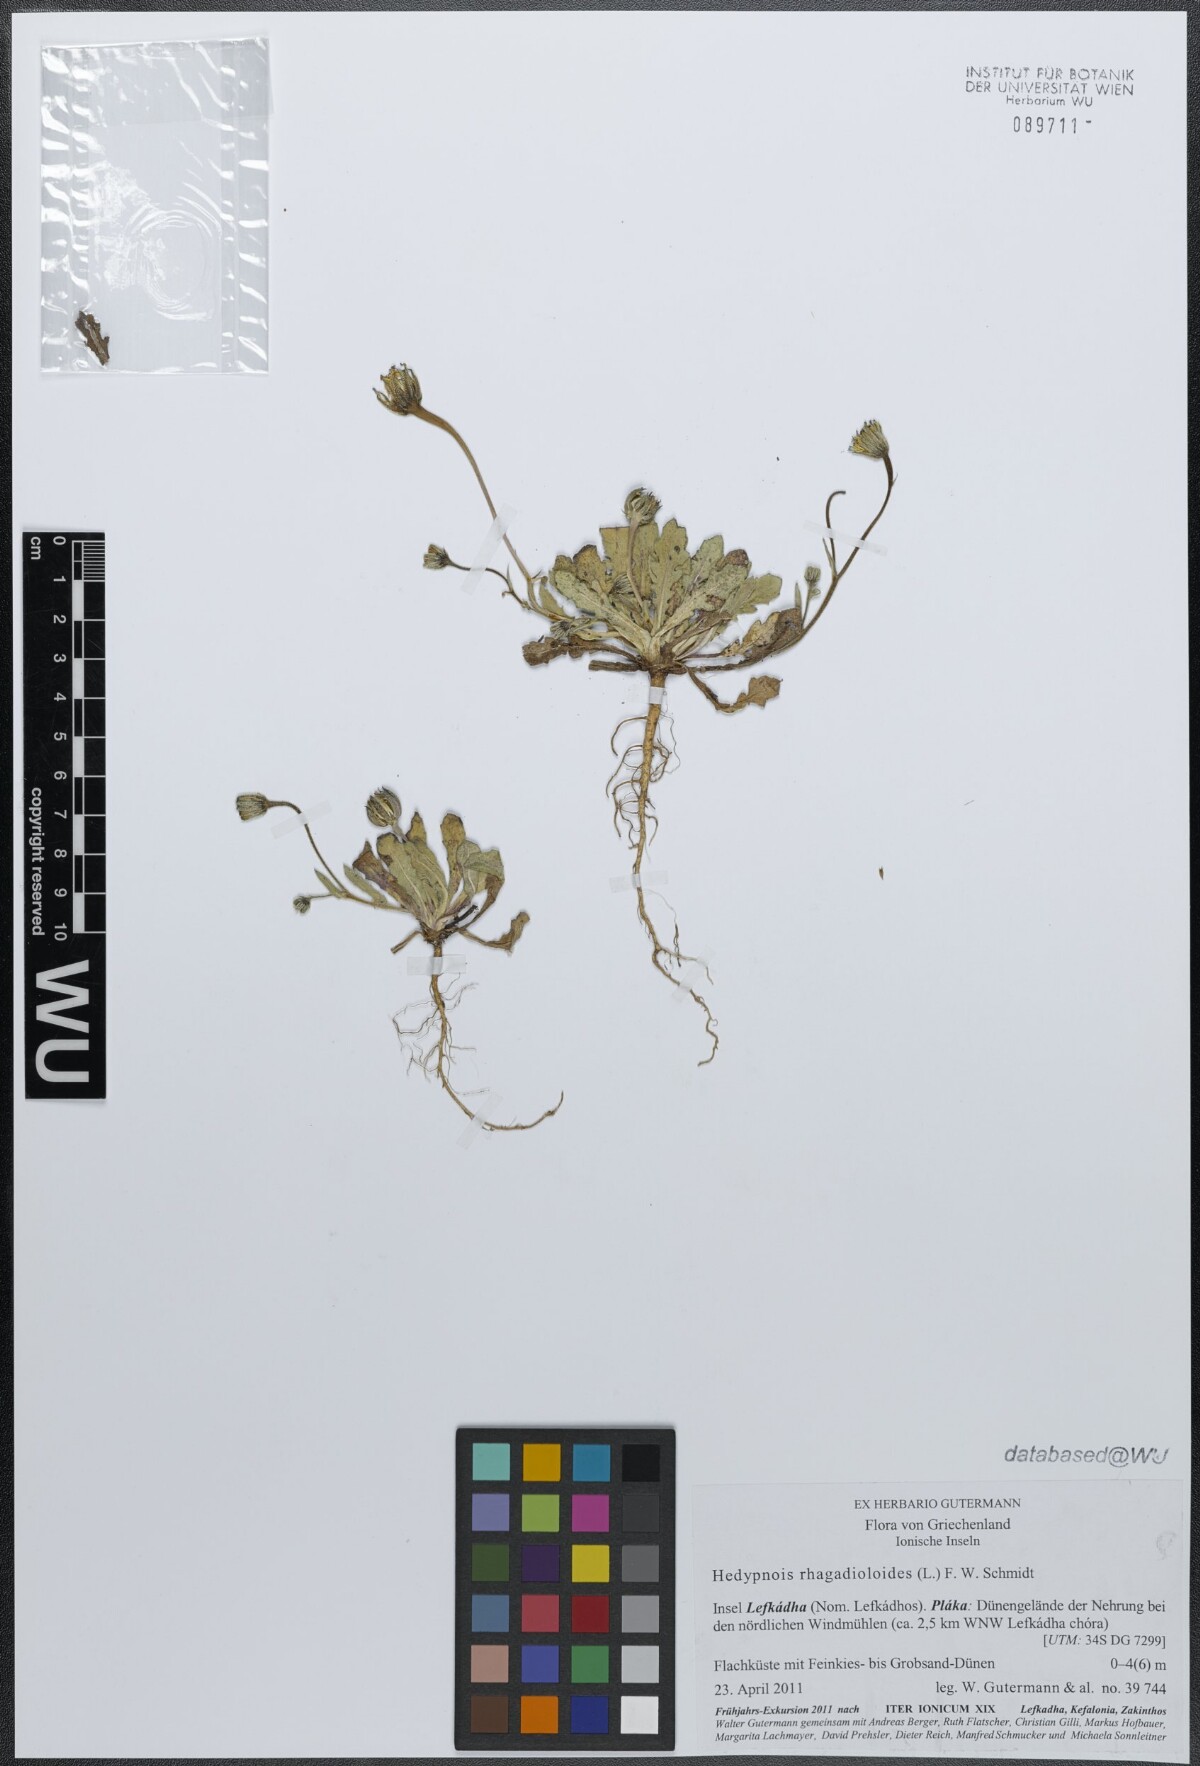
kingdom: Plantae
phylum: Tracheophyta
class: Magnoliopsida
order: Asterales
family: Asteraceae
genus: Hedypnois
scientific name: Hedypnois rhagadioloides
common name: Cretan weed
